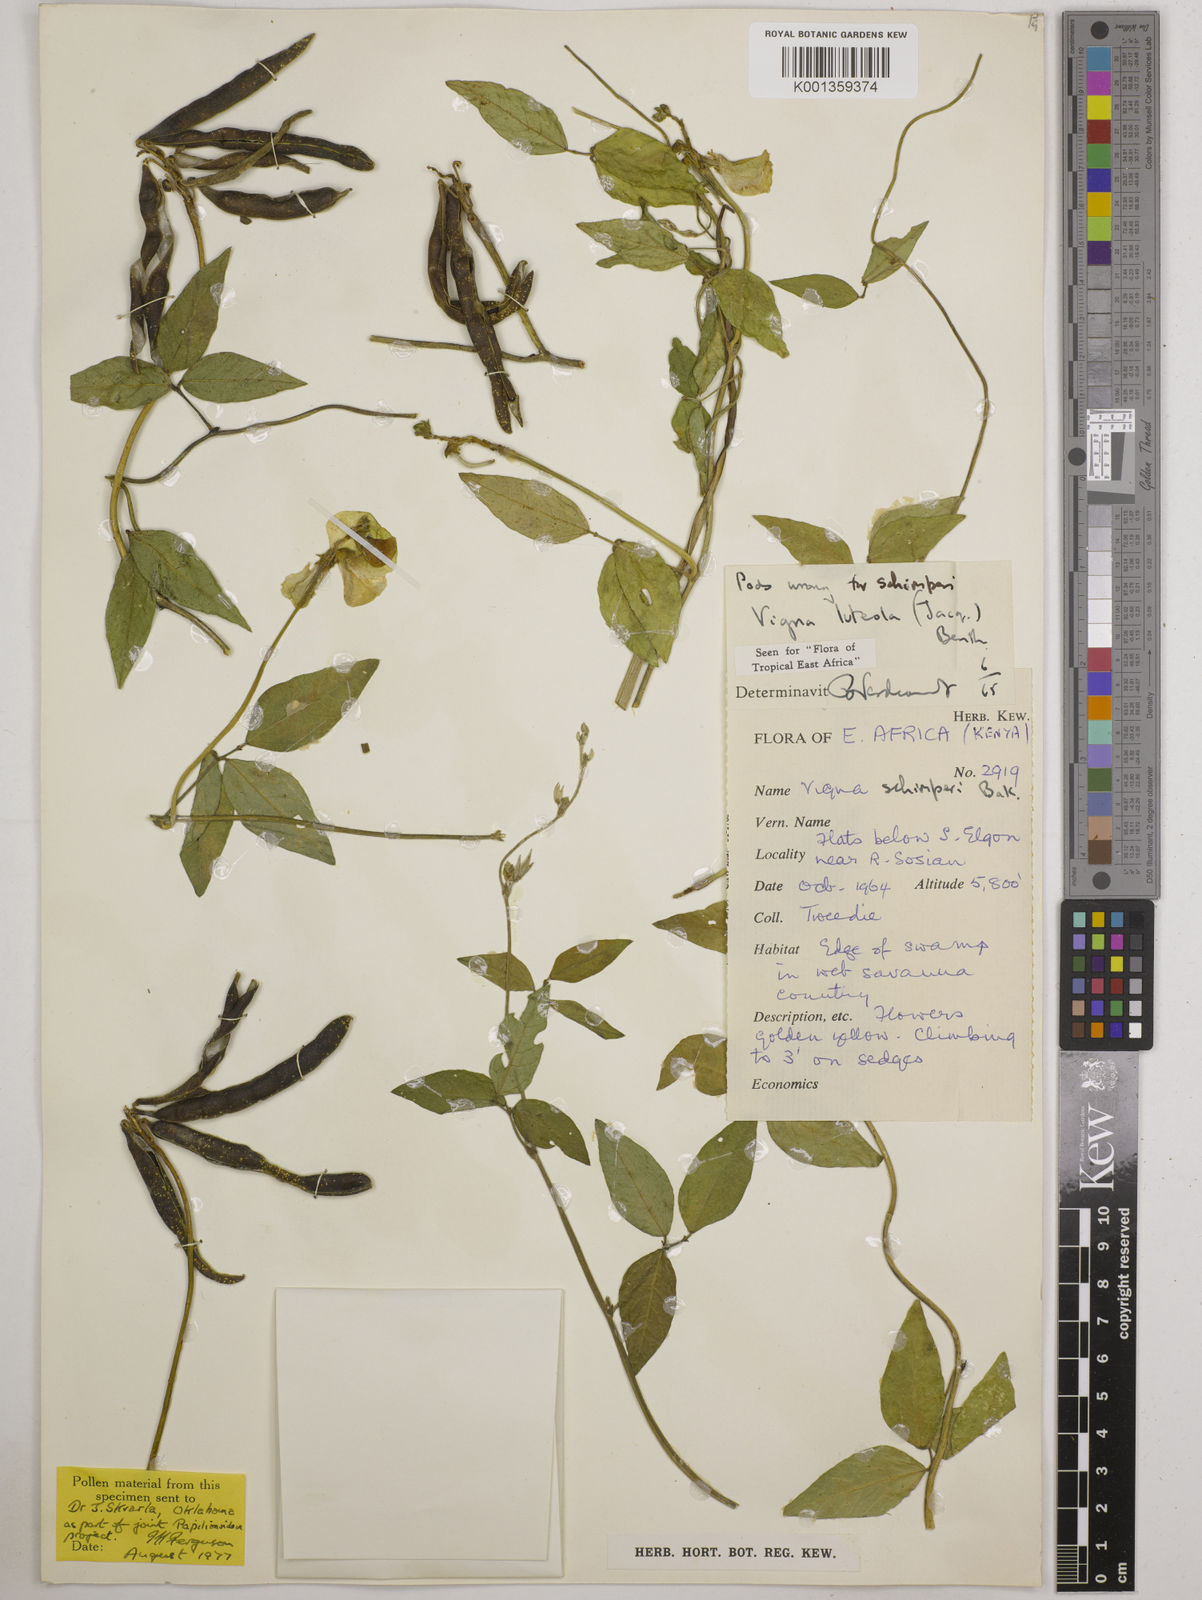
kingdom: Plantae
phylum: Tracheophyta
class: Magnoliopsida
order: Fabales
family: Fabaceae
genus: Vigna
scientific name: Vigna luteola
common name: Hairypod cowpea
